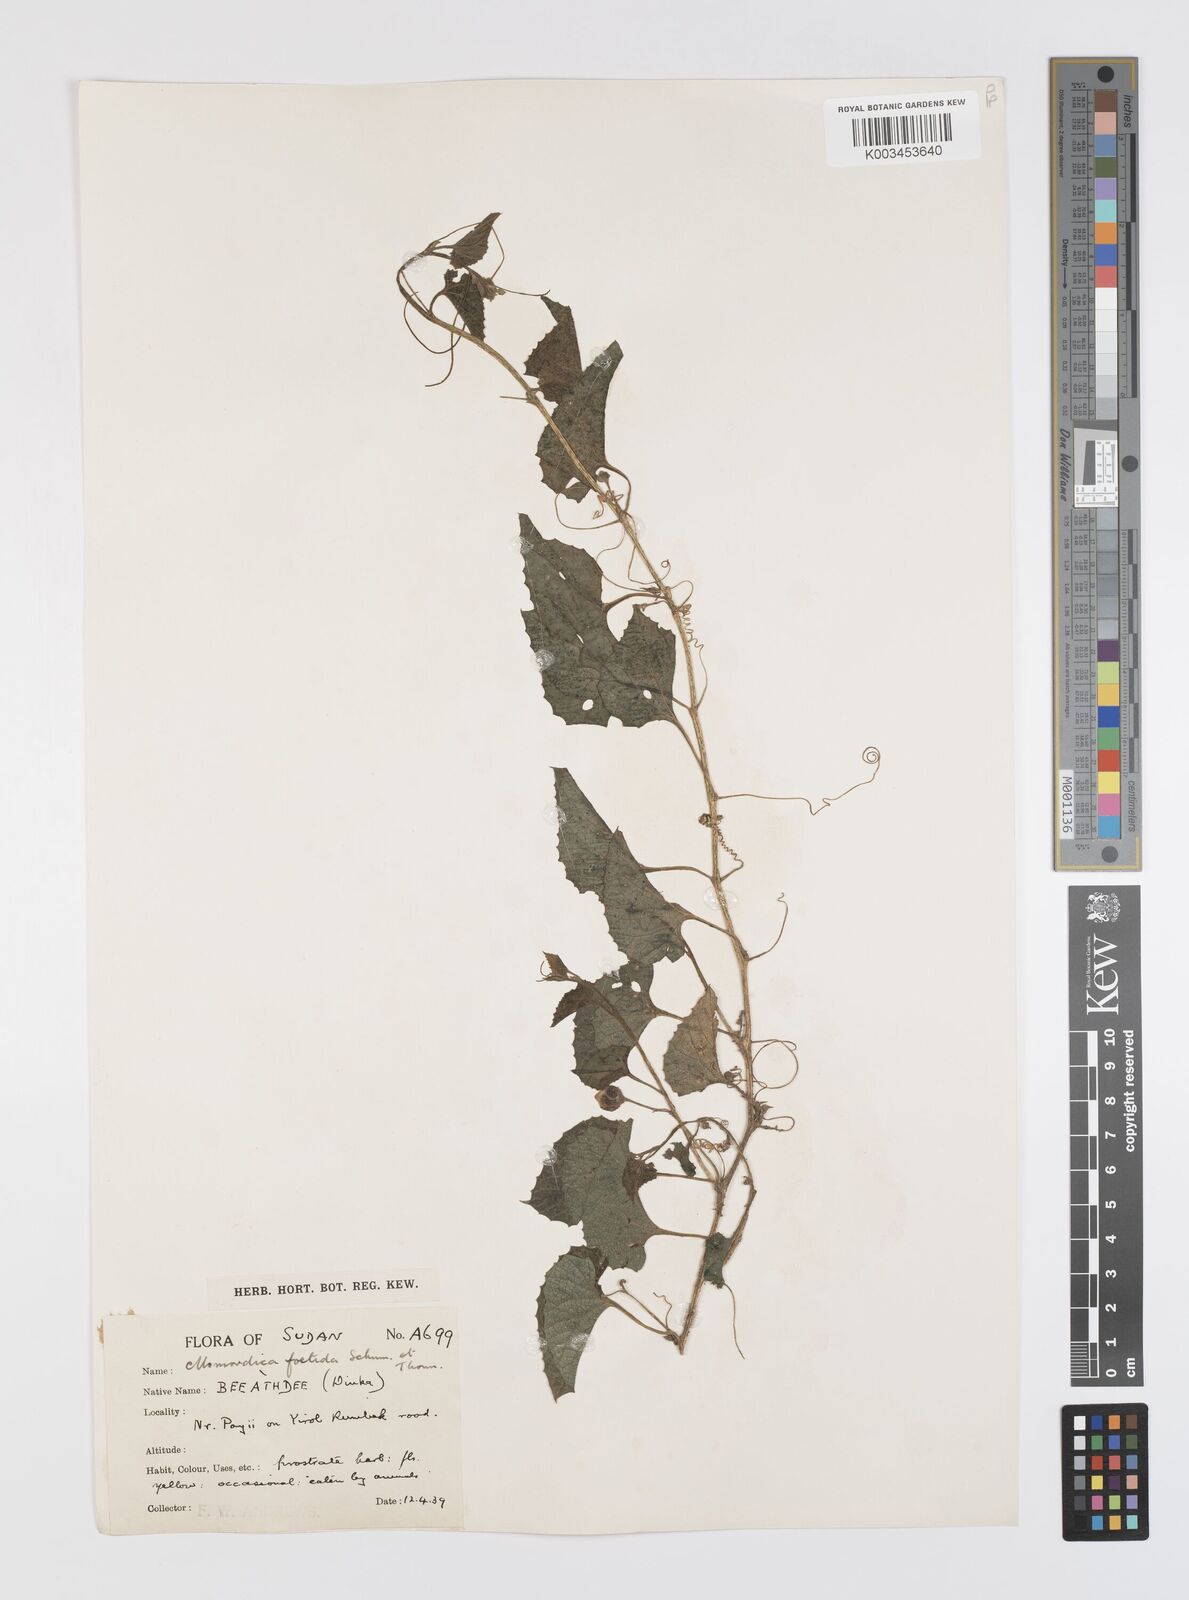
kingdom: Plantae
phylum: Tracheophyta
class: Magnoliopsida
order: Cucurbitales
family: Cucurbitaceae
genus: Momordica
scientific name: Momordica foetida
